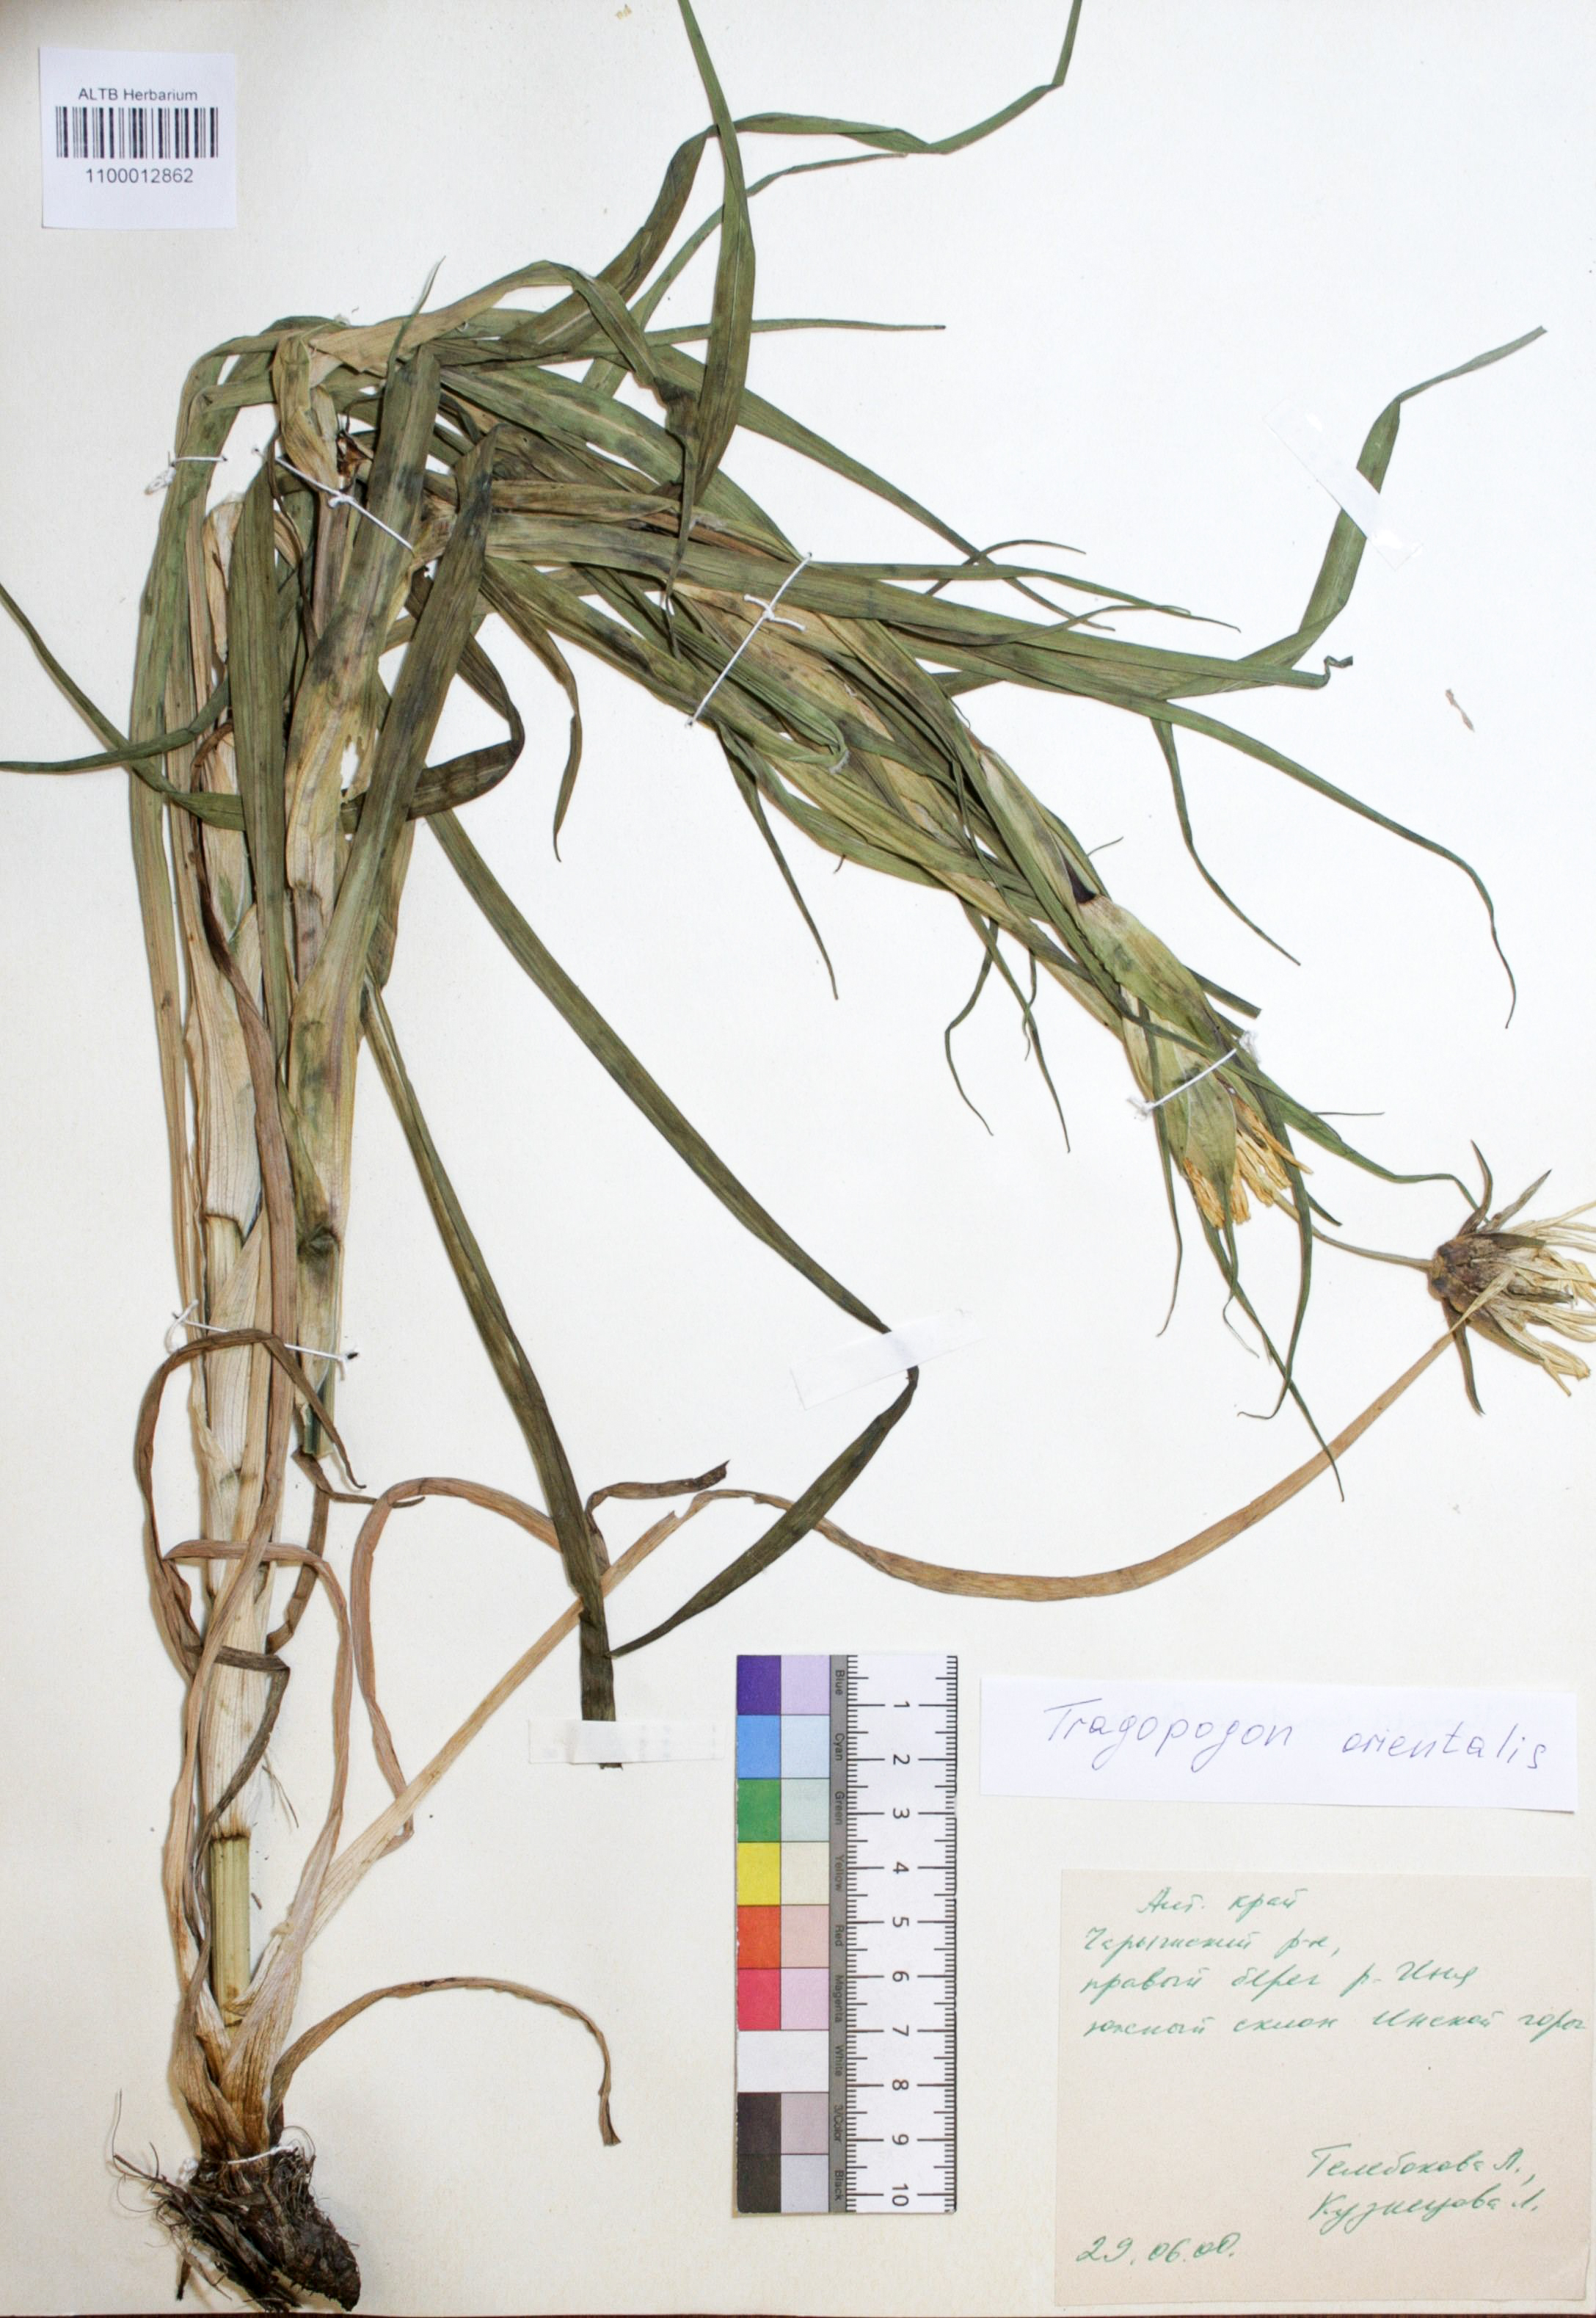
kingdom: Plantae
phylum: Tracheophyta
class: Magnoliopsida
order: Asterales
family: Asteraceae
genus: Tragopogon
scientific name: Tragopogon orientalis
